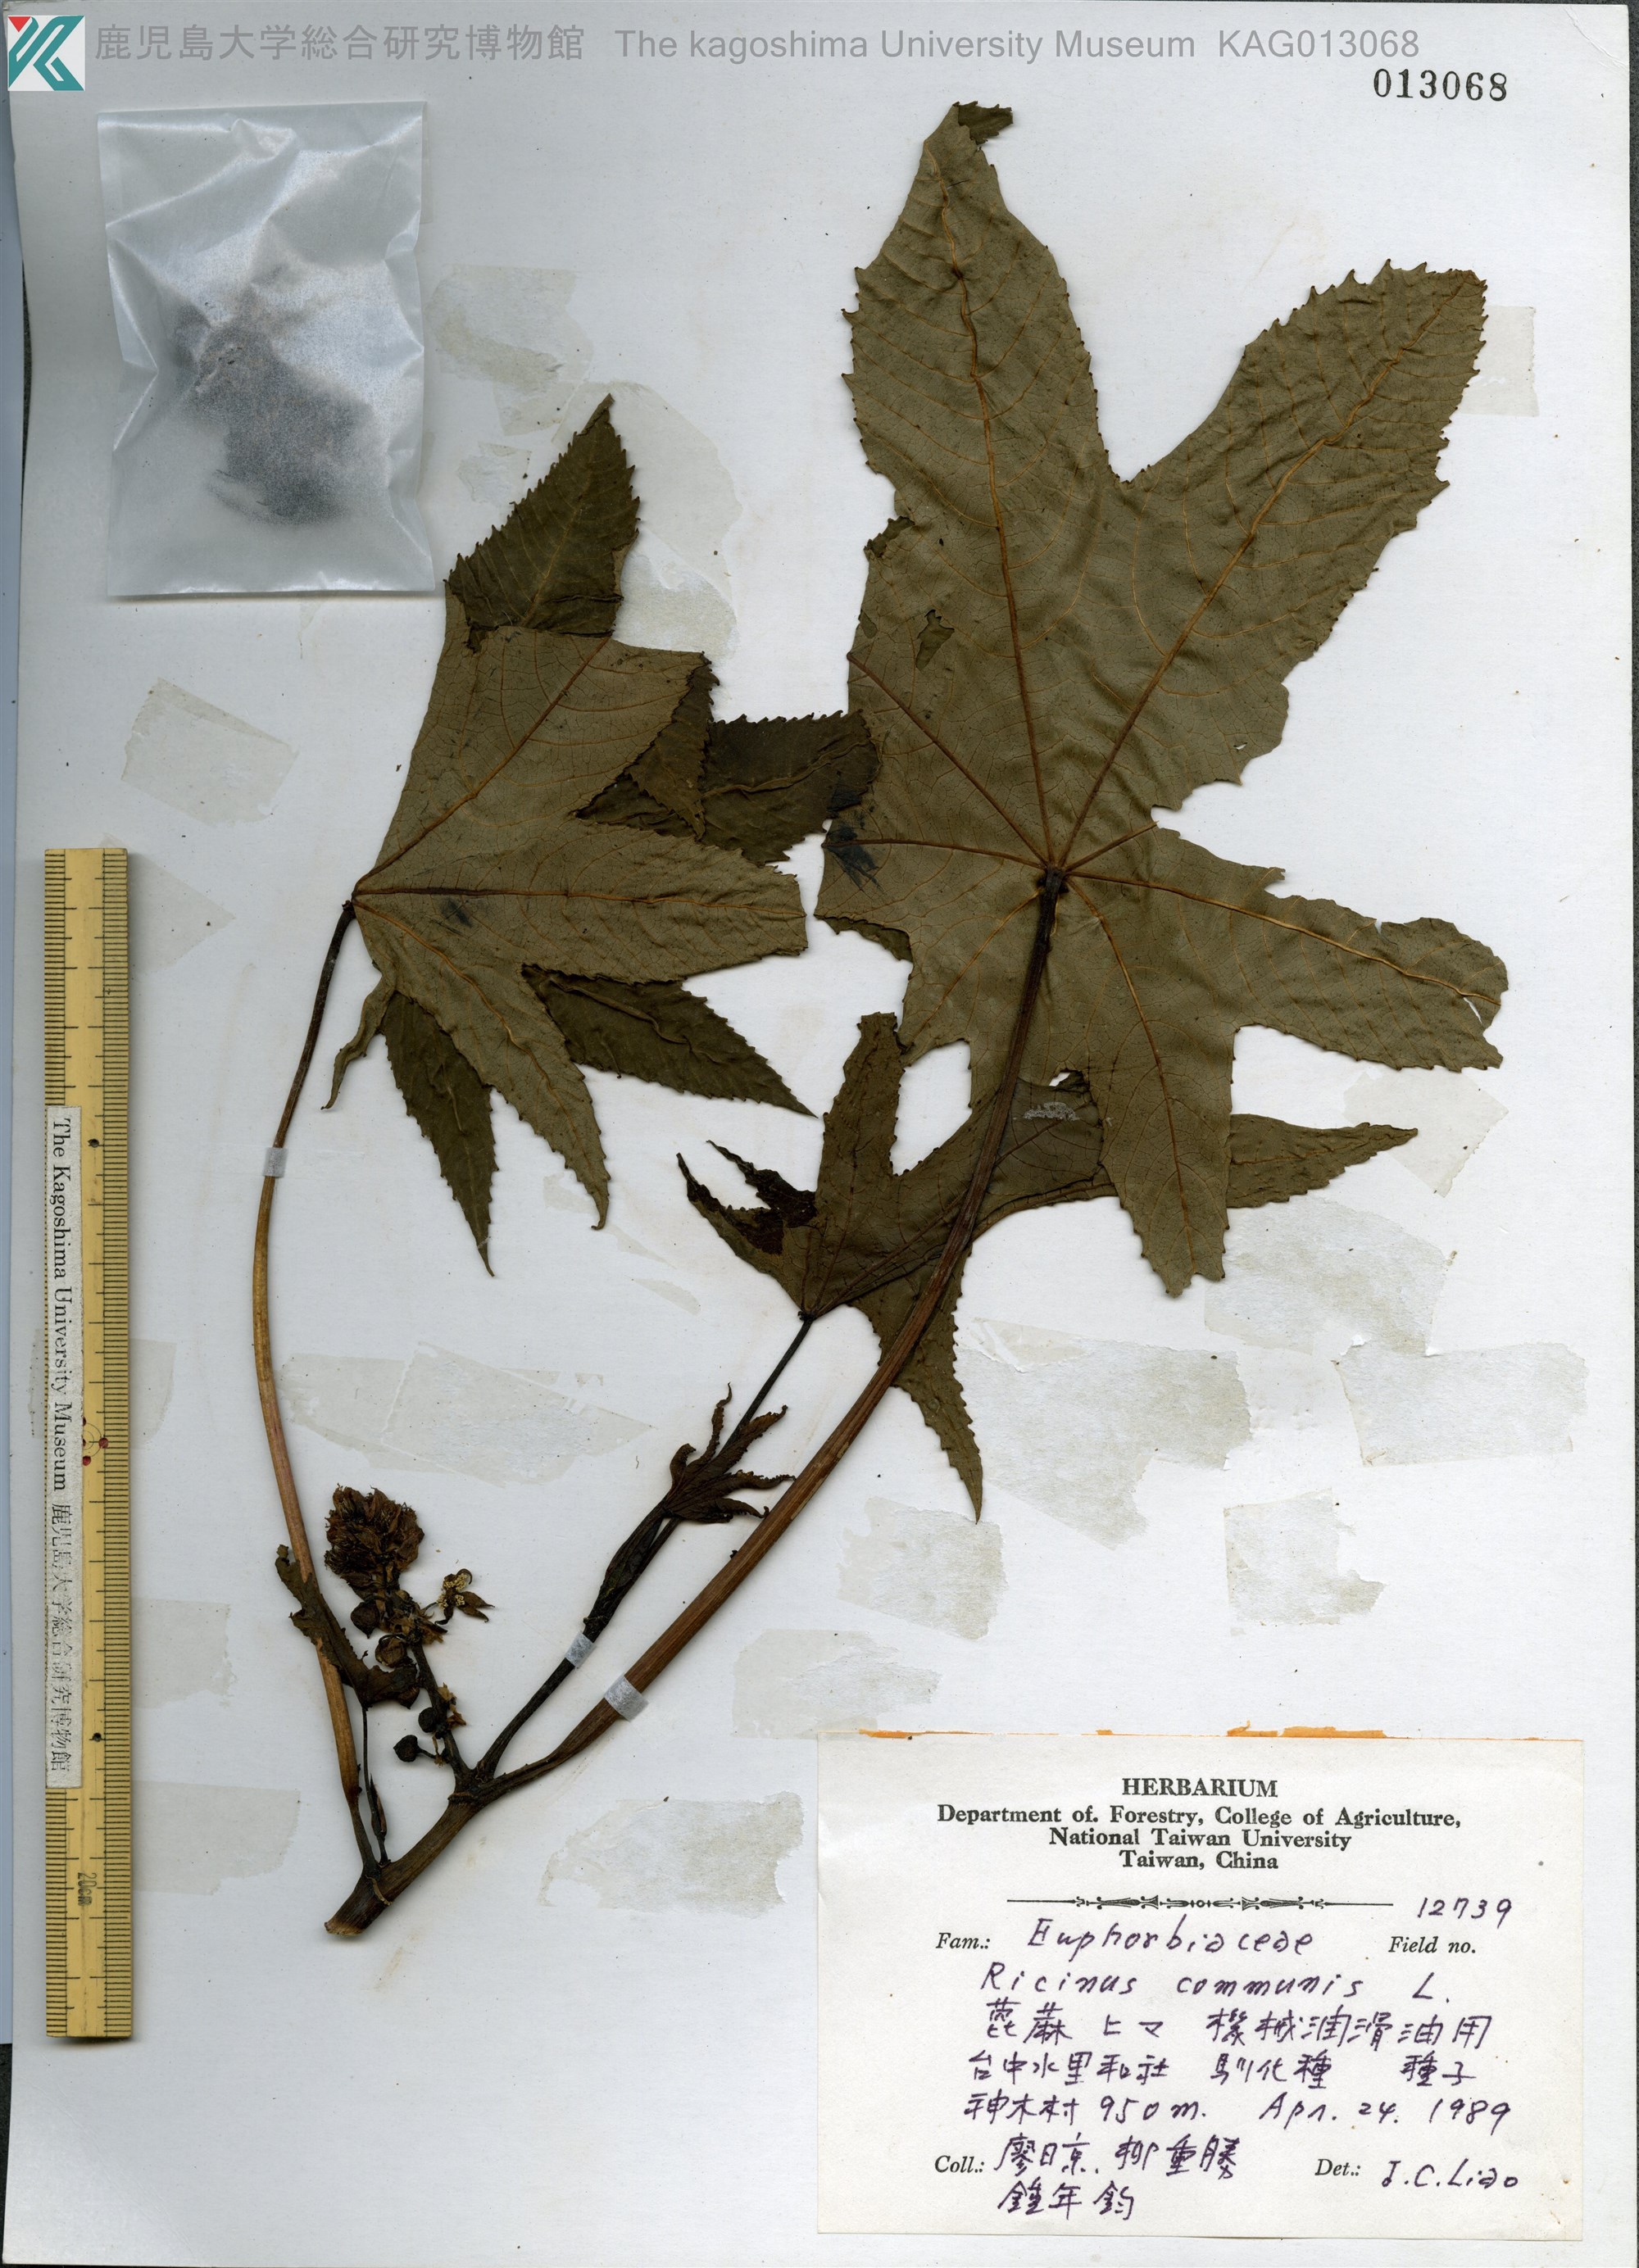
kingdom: Plantae
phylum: Tracheophyta
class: Magnoliopsida
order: Malpighiales
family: Euphorbiaceae
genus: Ricinus
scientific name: Ricinus communis
